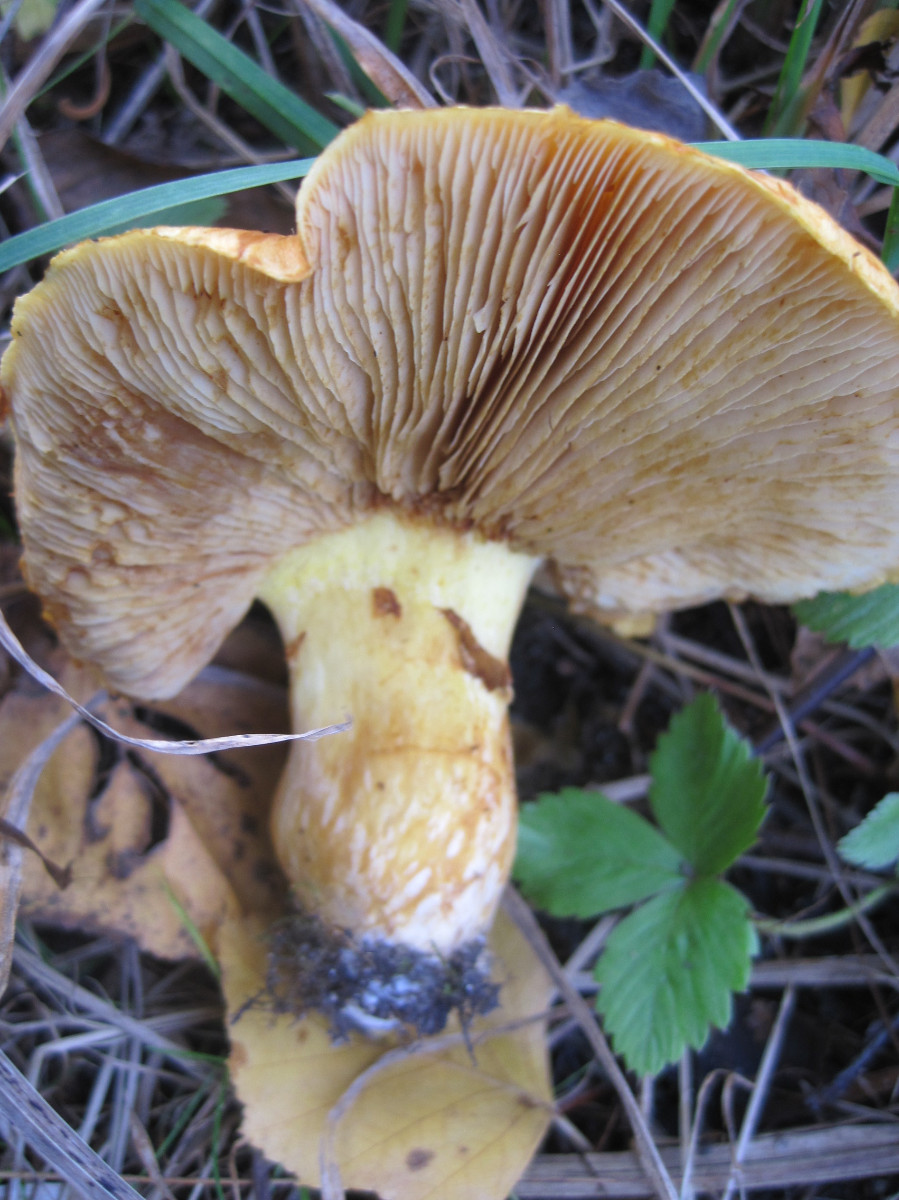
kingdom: Fungi
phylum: Basidiomycota
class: Agaricomycetes
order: Agaricales
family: Hymenogastraceae
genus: Gymnopilus
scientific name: Gymnopilus spectabilis
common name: fibret flammehat
